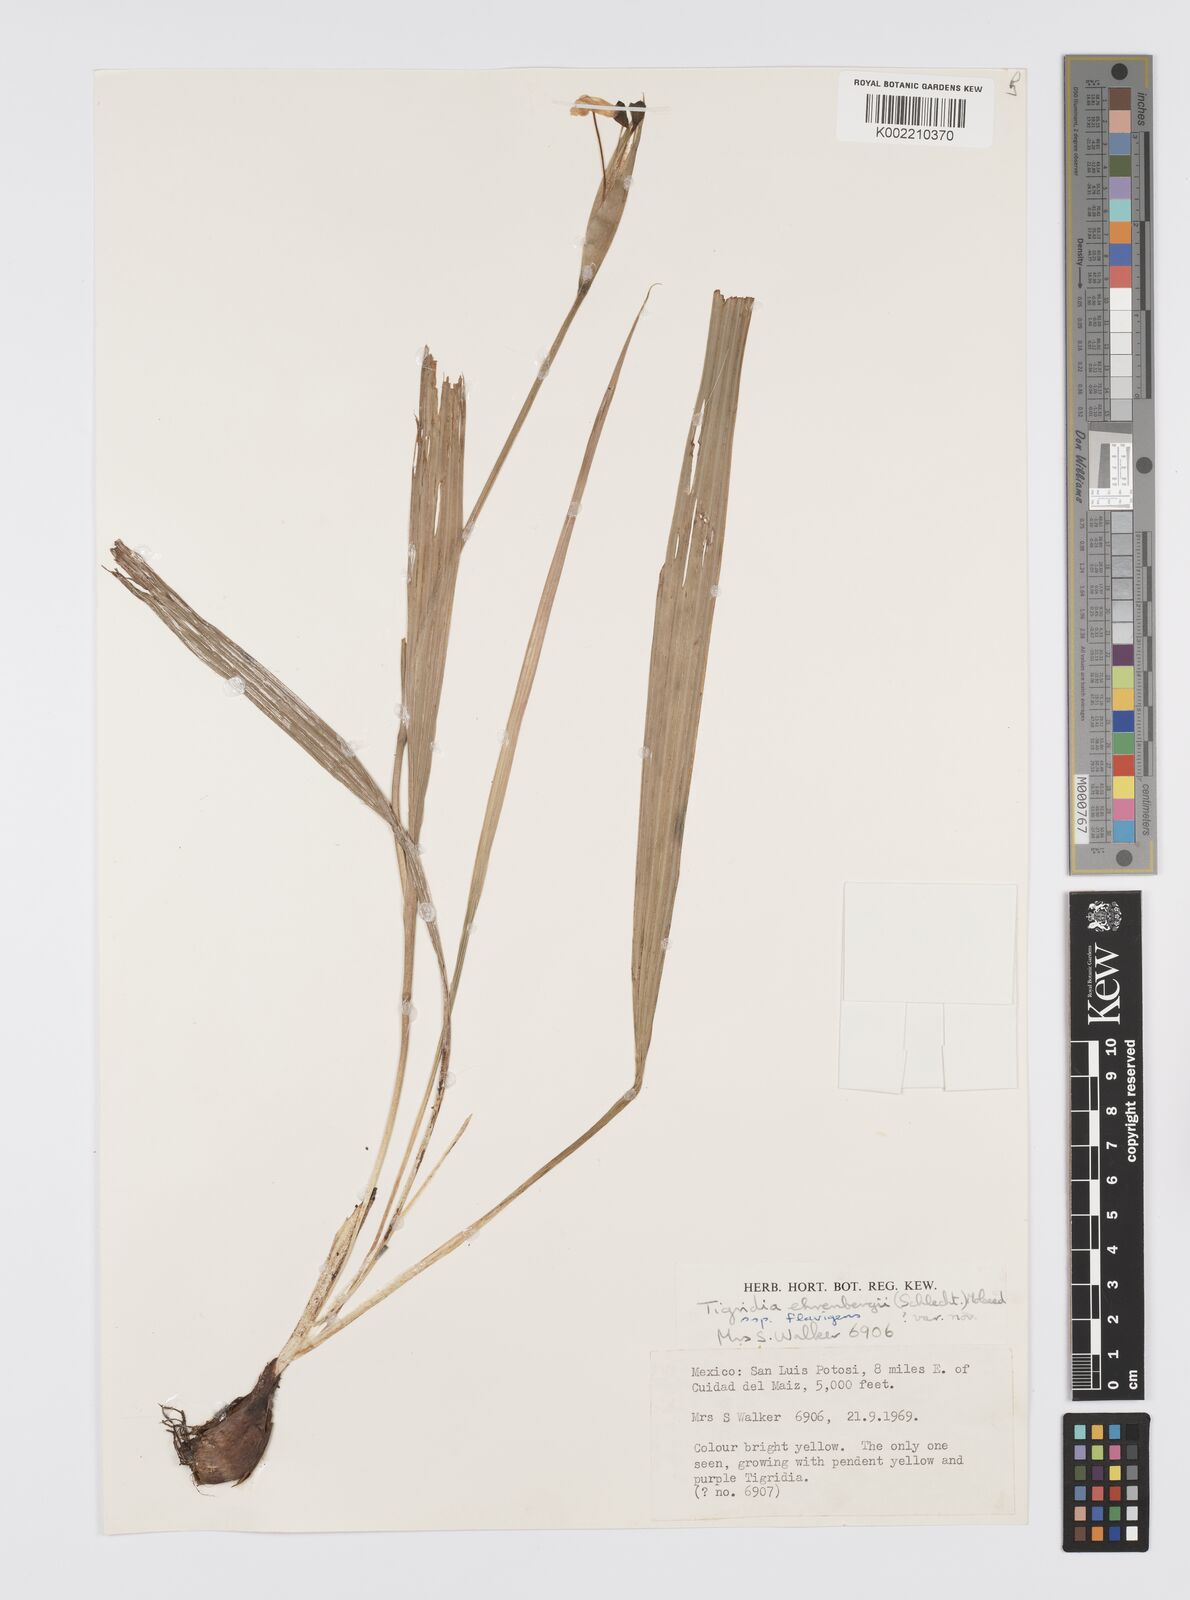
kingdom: Plantae
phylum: Tracheophyta
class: Liliopsida
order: Asparagales
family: Iridaceae
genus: Tigridia
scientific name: Tigridia ehrenbergii
